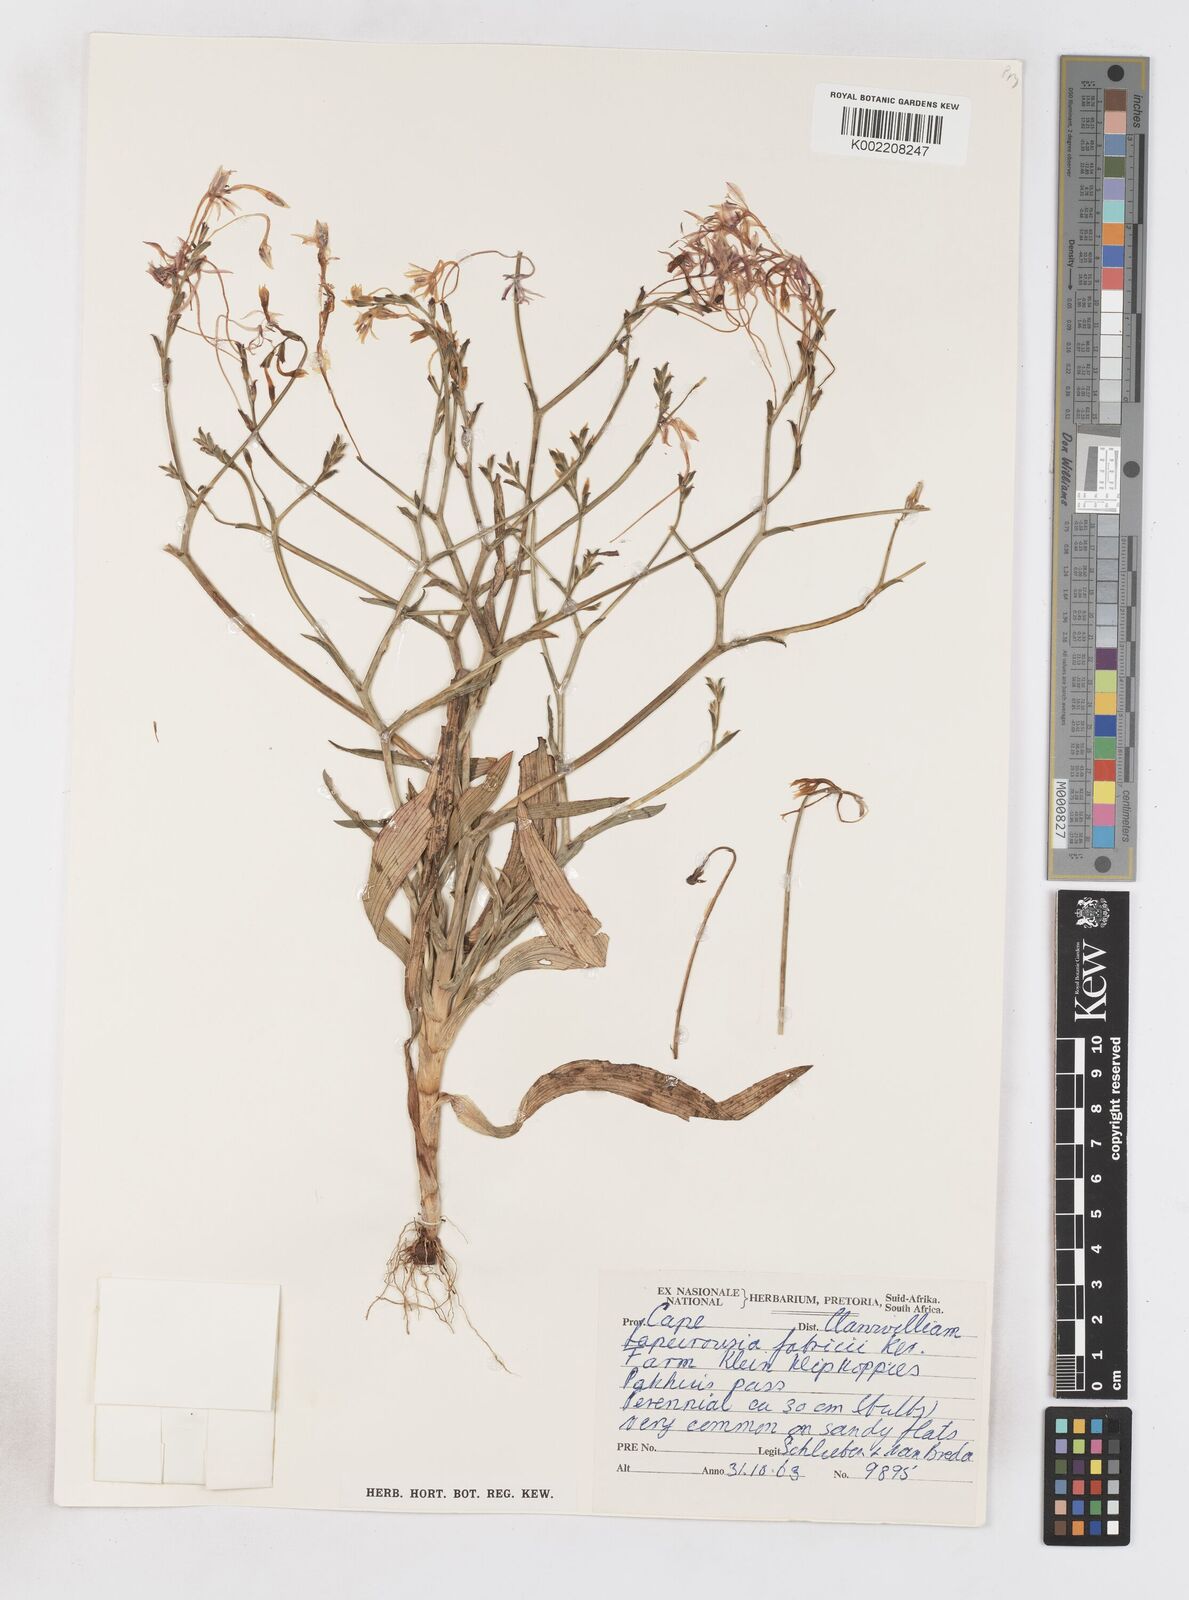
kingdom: Plantae
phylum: Tracheophyta
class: Liliopsida
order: Asparagales
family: Iridaceae
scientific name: Iridaceae
